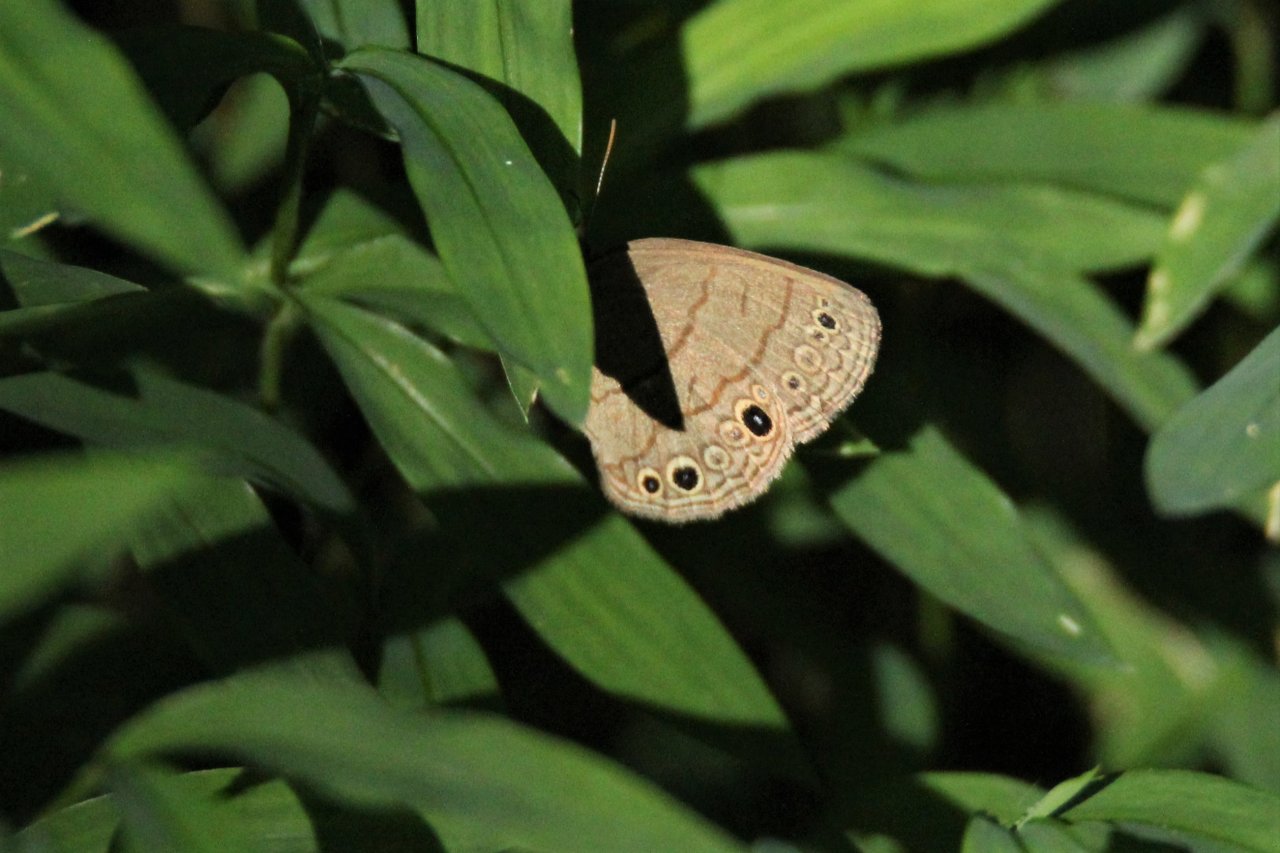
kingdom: Animalia
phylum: Arthropoda
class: Insecta
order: Lepidoptera
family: Nymphalidae
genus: Hermeuptychia
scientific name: Hermeuptychia hermes
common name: Carolina Satyr
